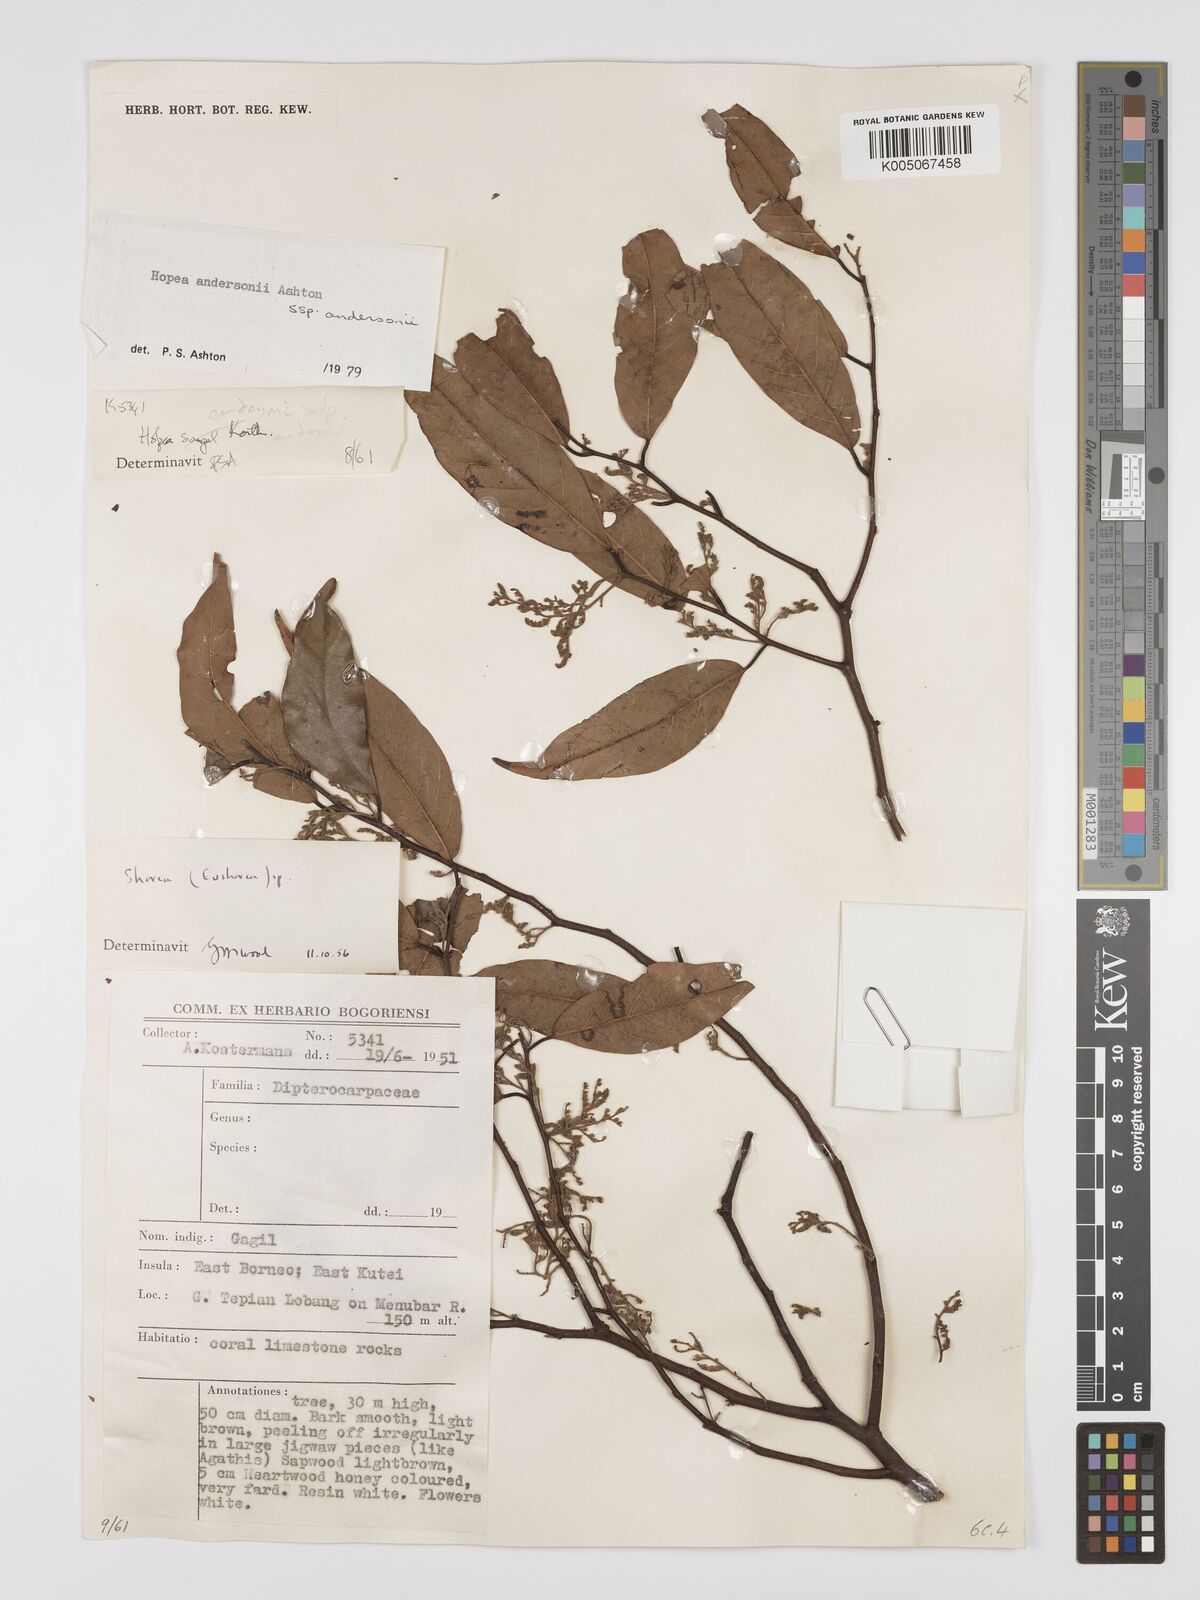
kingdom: Plantae
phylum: Tracheophyta
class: Magnoliopsida
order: Malvales
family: Dipterocarpaceae
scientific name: Dipterocarpaceae
